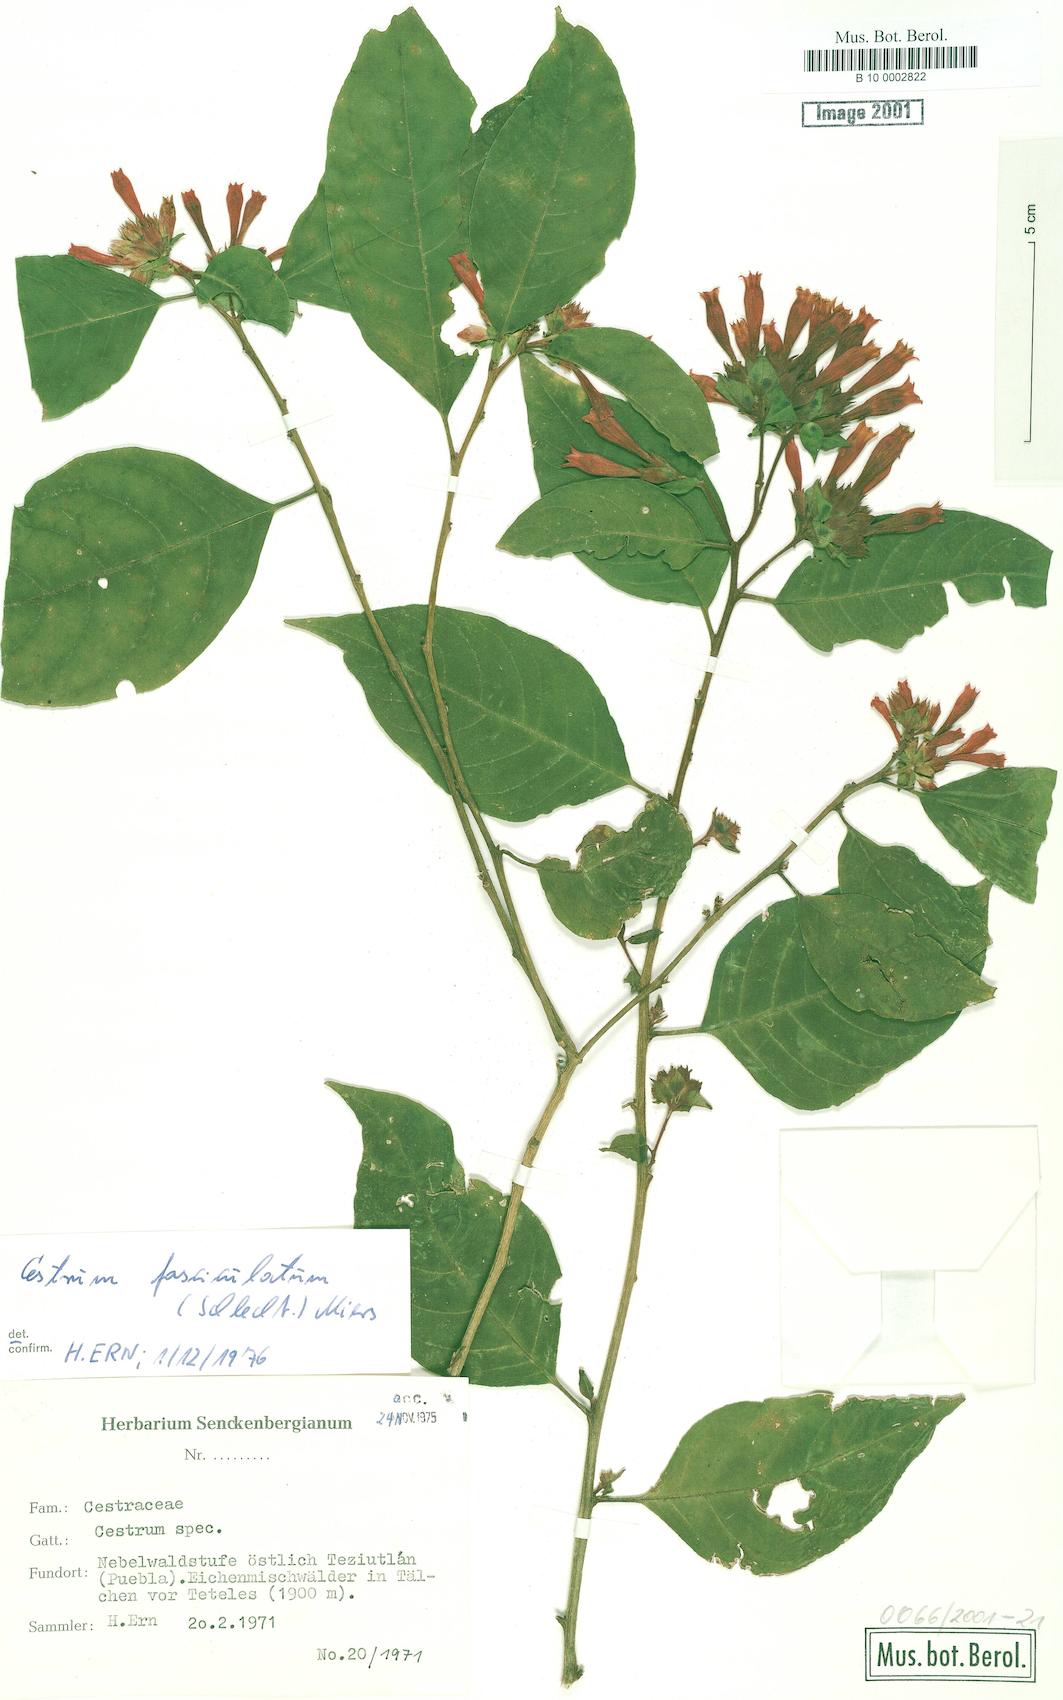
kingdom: Plantae
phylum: Tracheophyta
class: Magnoliopsida
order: Solanales
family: Solanaceae
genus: Cestrum
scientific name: Cestrum fasciculatum
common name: Early jessamine
